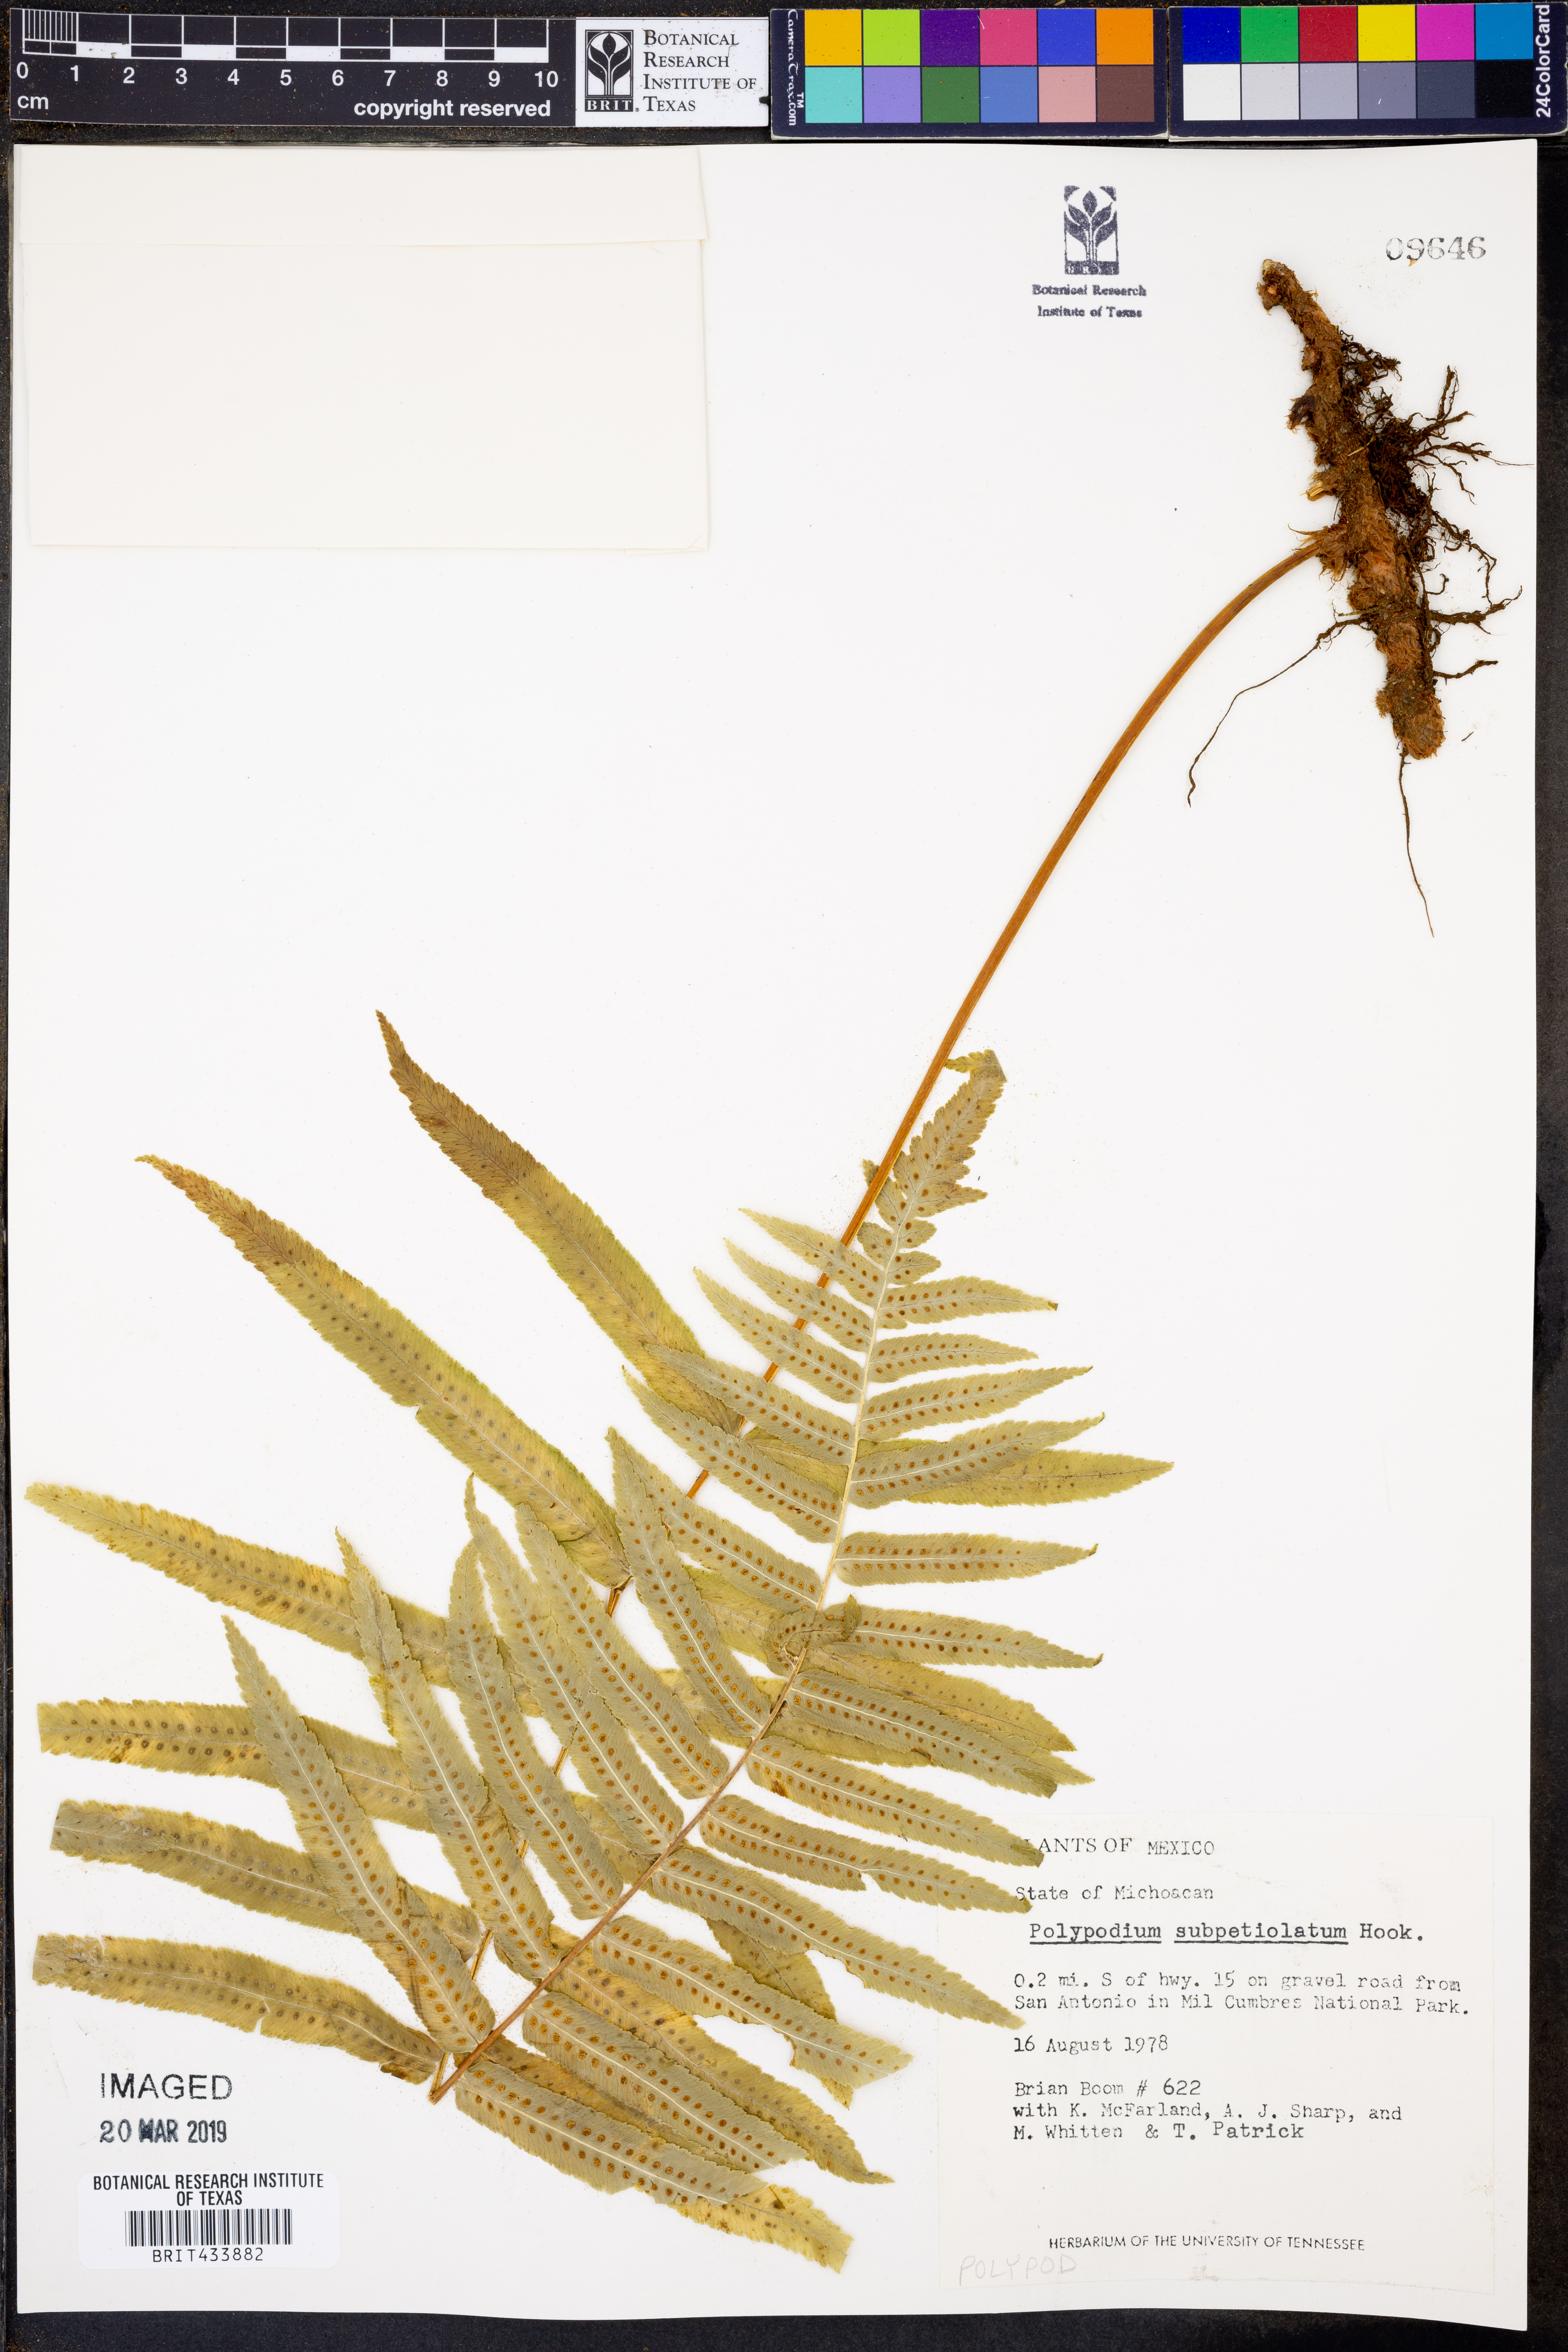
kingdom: Plantae
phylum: Tracheophyta
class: Polypodiopsida
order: Polypodiales
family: Polypodiaceae
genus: Polypodium
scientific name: Polypodium subpetiolatum
